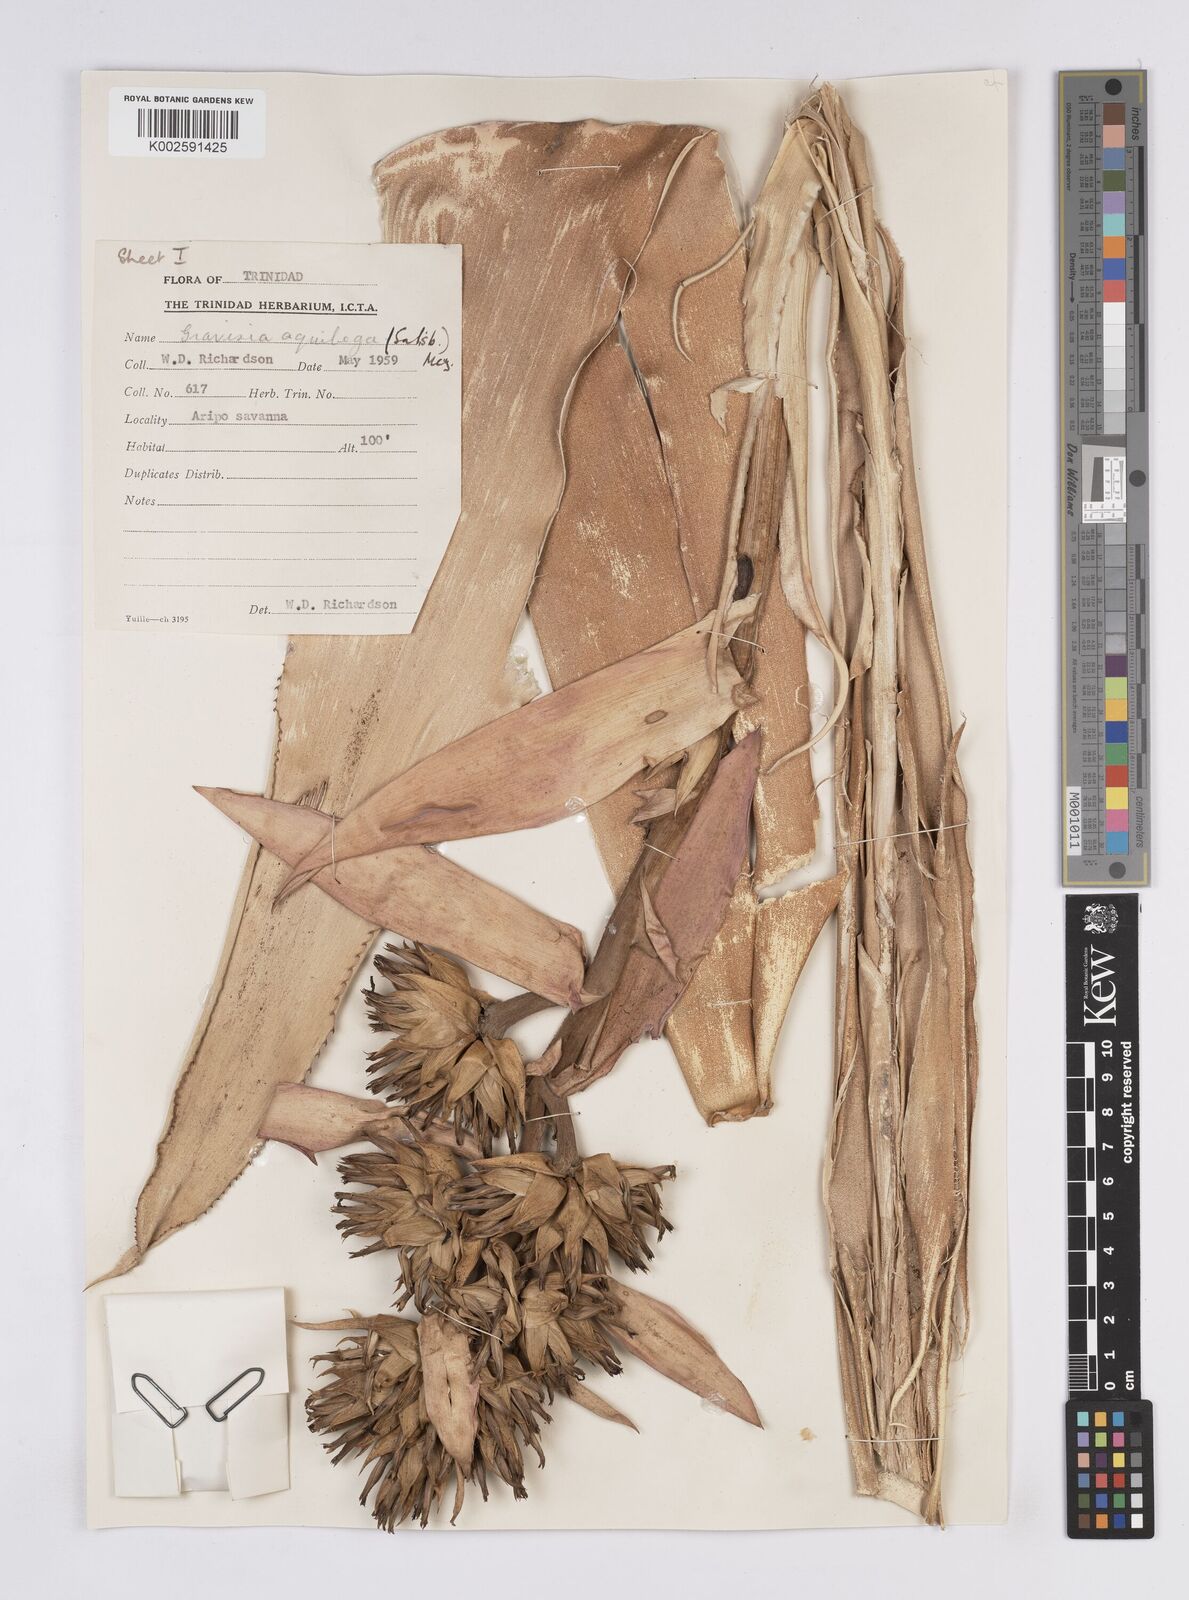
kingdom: Plantae
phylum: Tracheophyta
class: Liliopsida
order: Poales
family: Bromeliaceae
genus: Aechmea
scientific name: Aechmea aquilega
